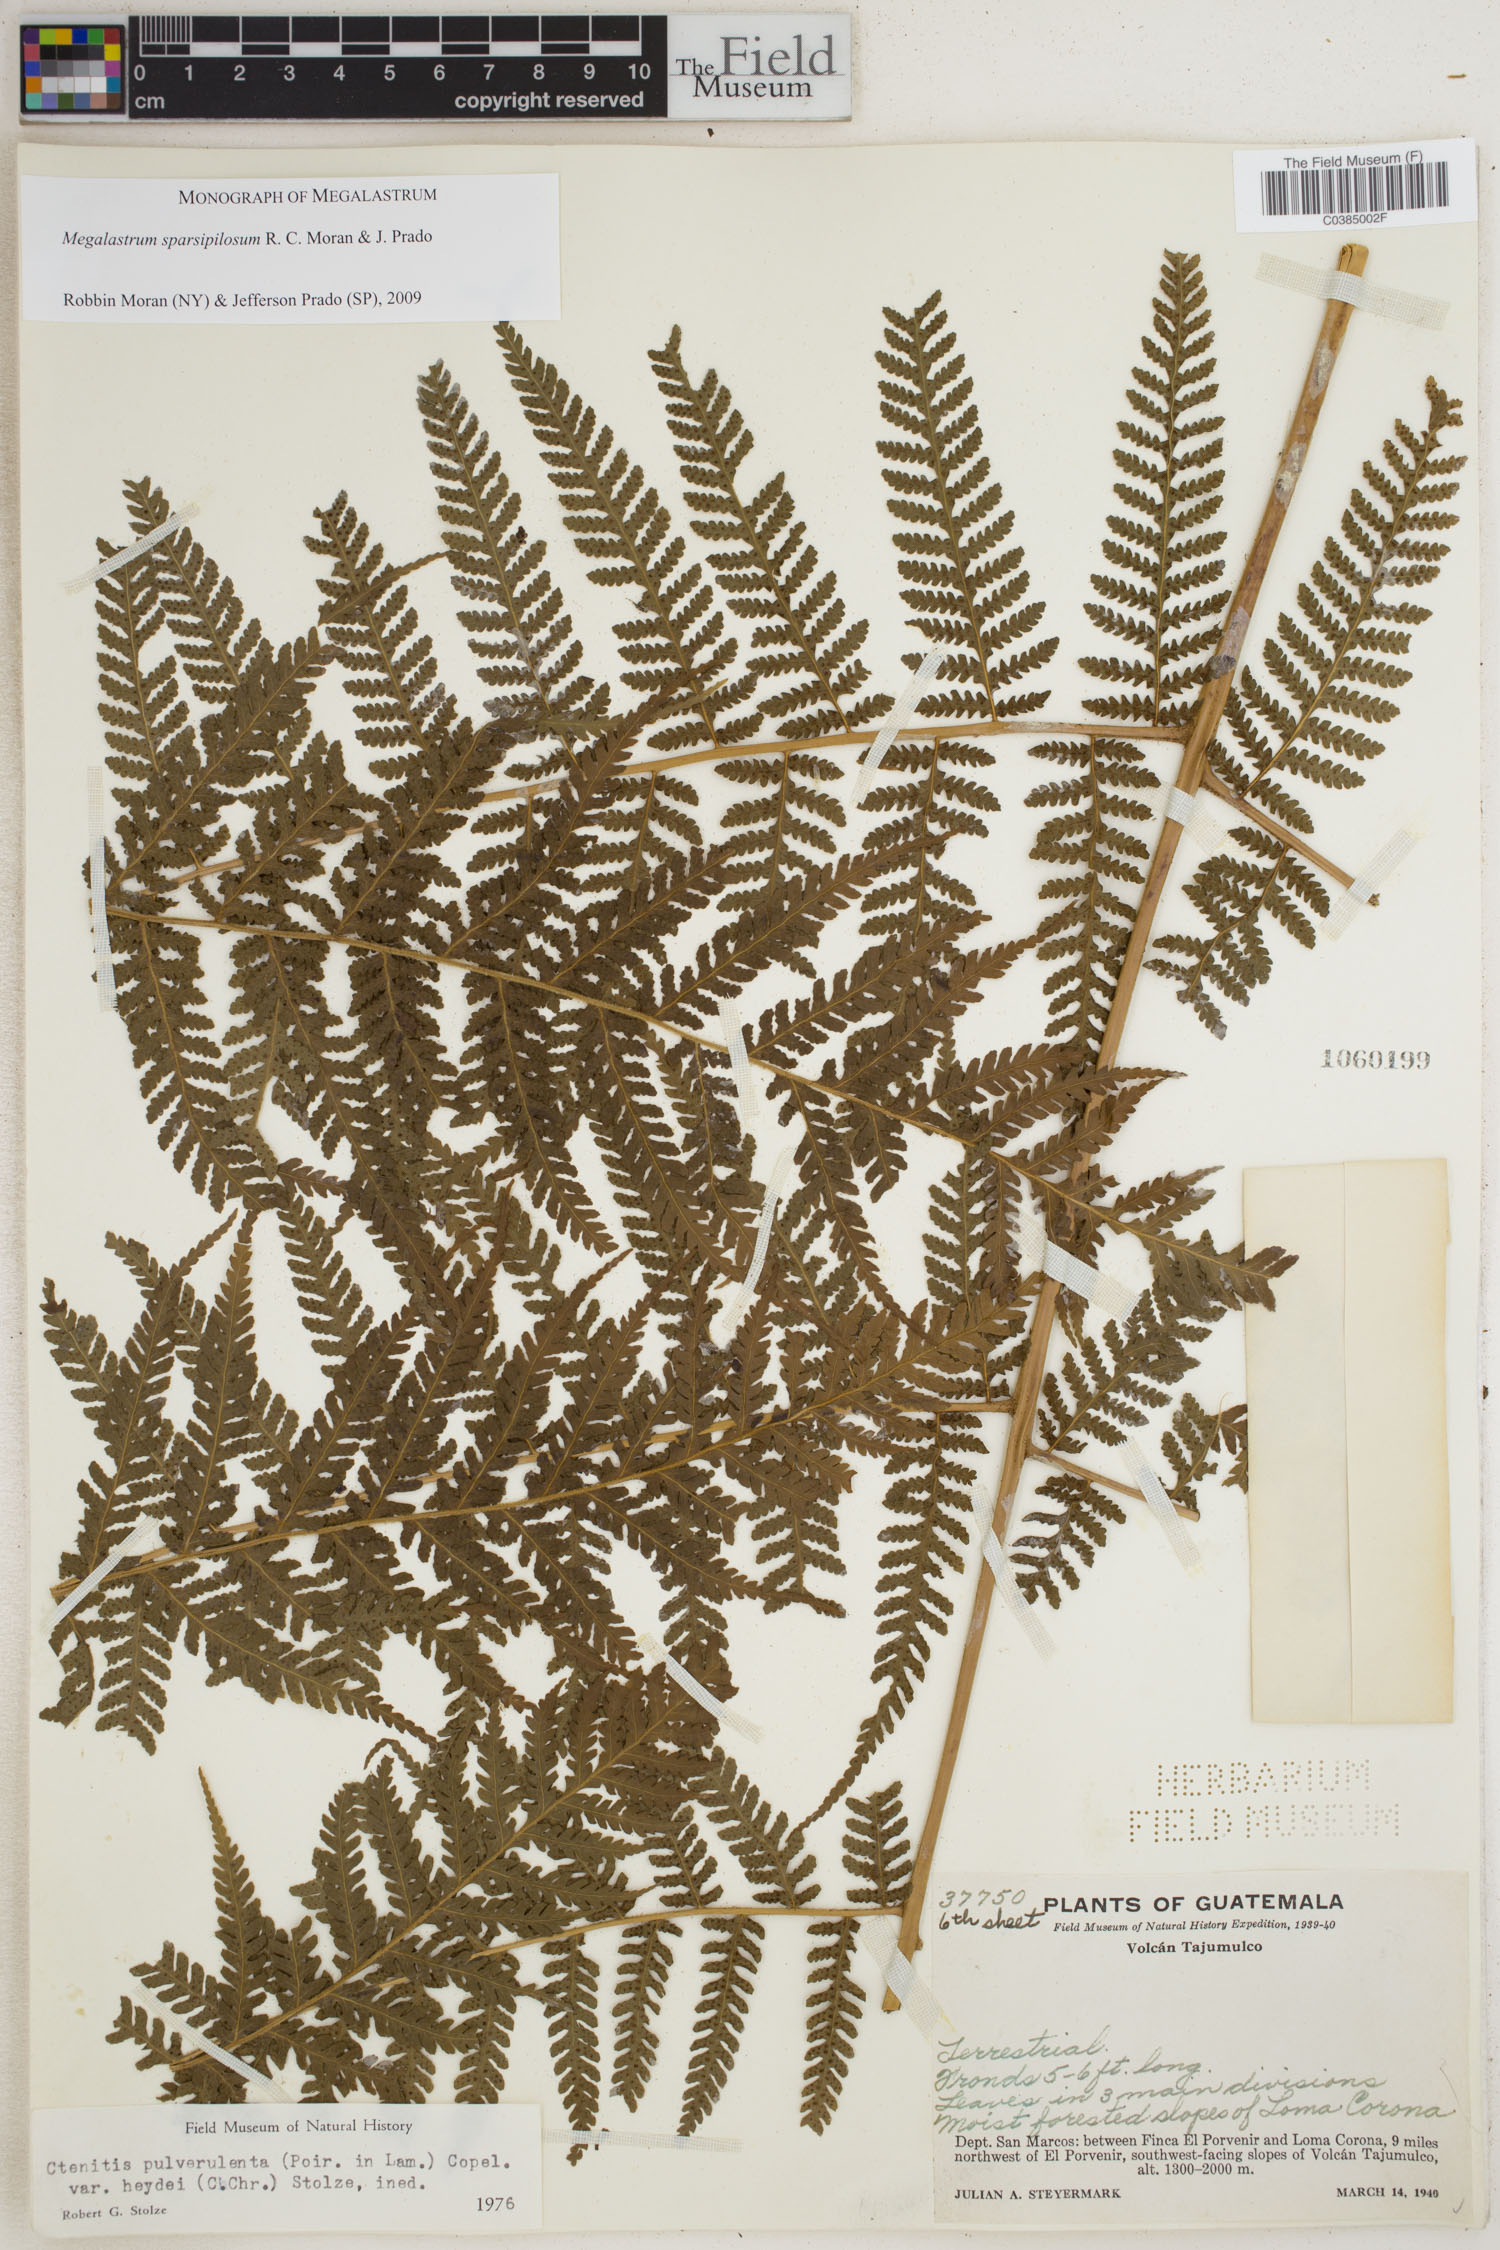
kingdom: Plantae
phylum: Tracheophyta
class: Polypodiopsida
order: Polypodiales
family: Dryopteridaceae
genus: Megalastrum
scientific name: Megalastrum sparsipilosum
